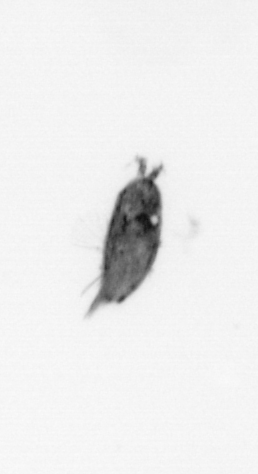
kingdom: Animalia
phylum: Arthropoda
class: Maxillopoda
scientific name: Maxillopoda
